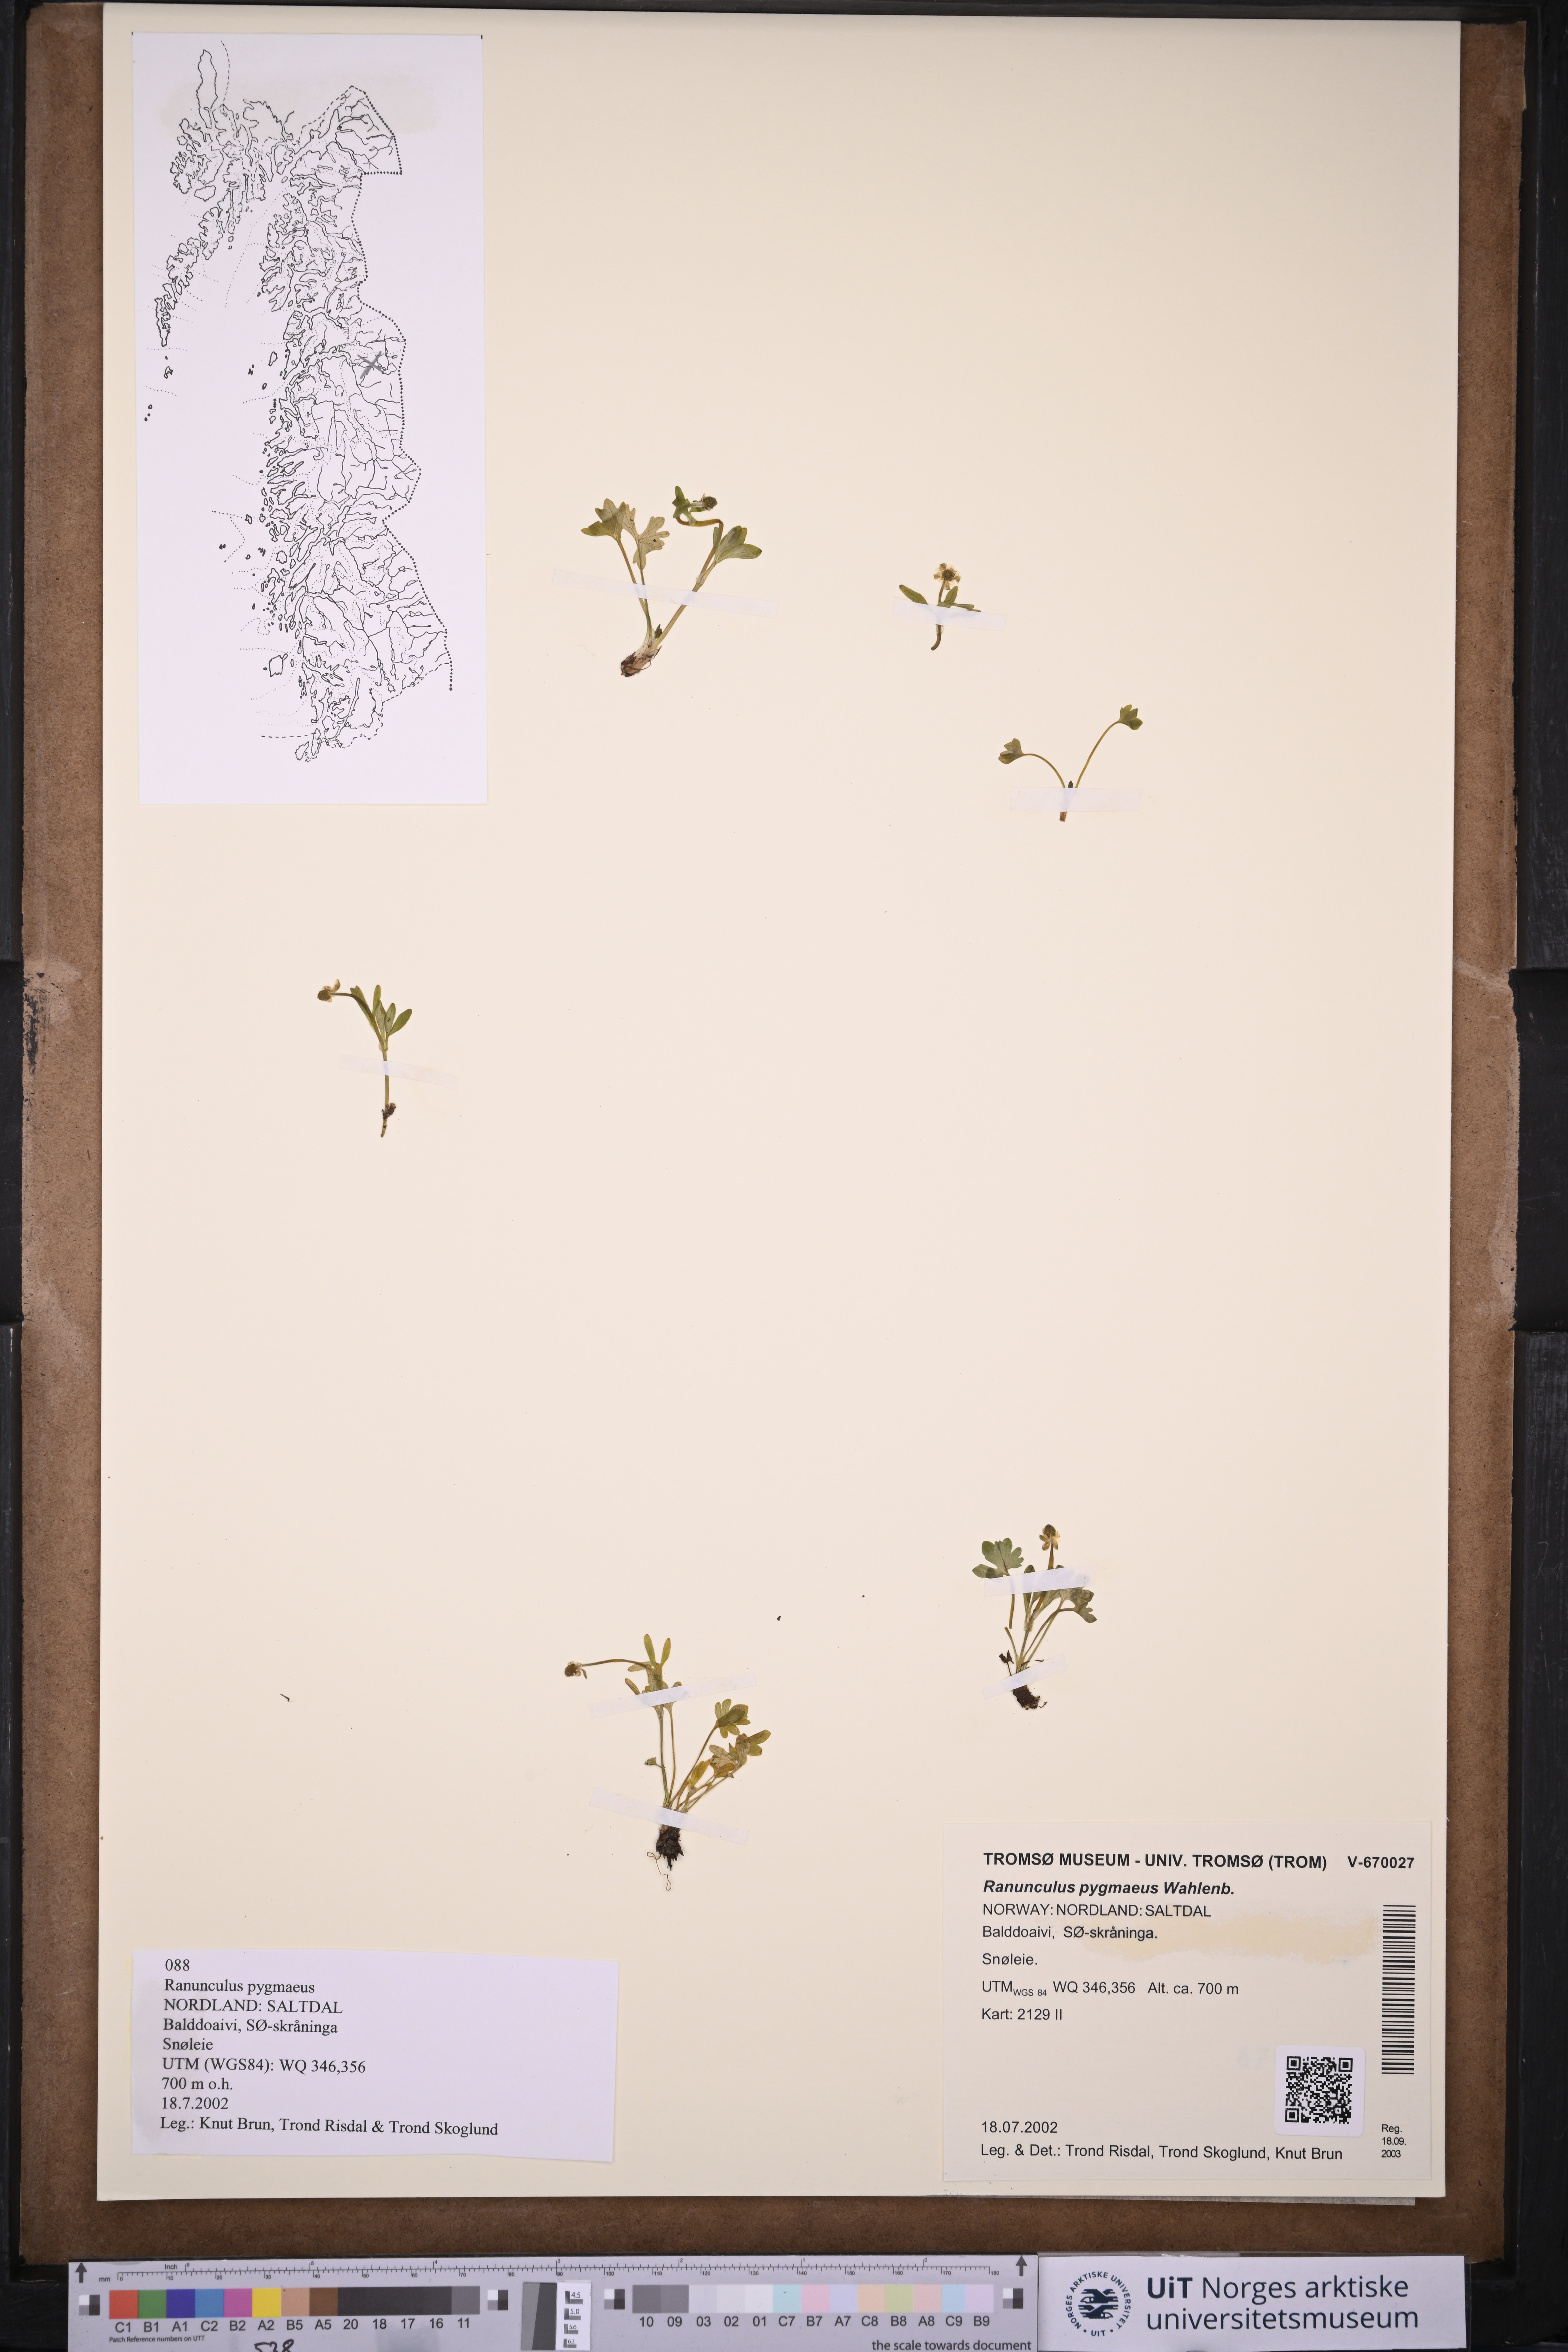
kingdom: Plantae
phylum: Tracheophyta
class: Magnoliopsida
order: Ranunculales
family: Ranunculaceae
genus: Ranunculus
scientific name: Ranunculus pygmaeus
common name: Dwarf buttercup
